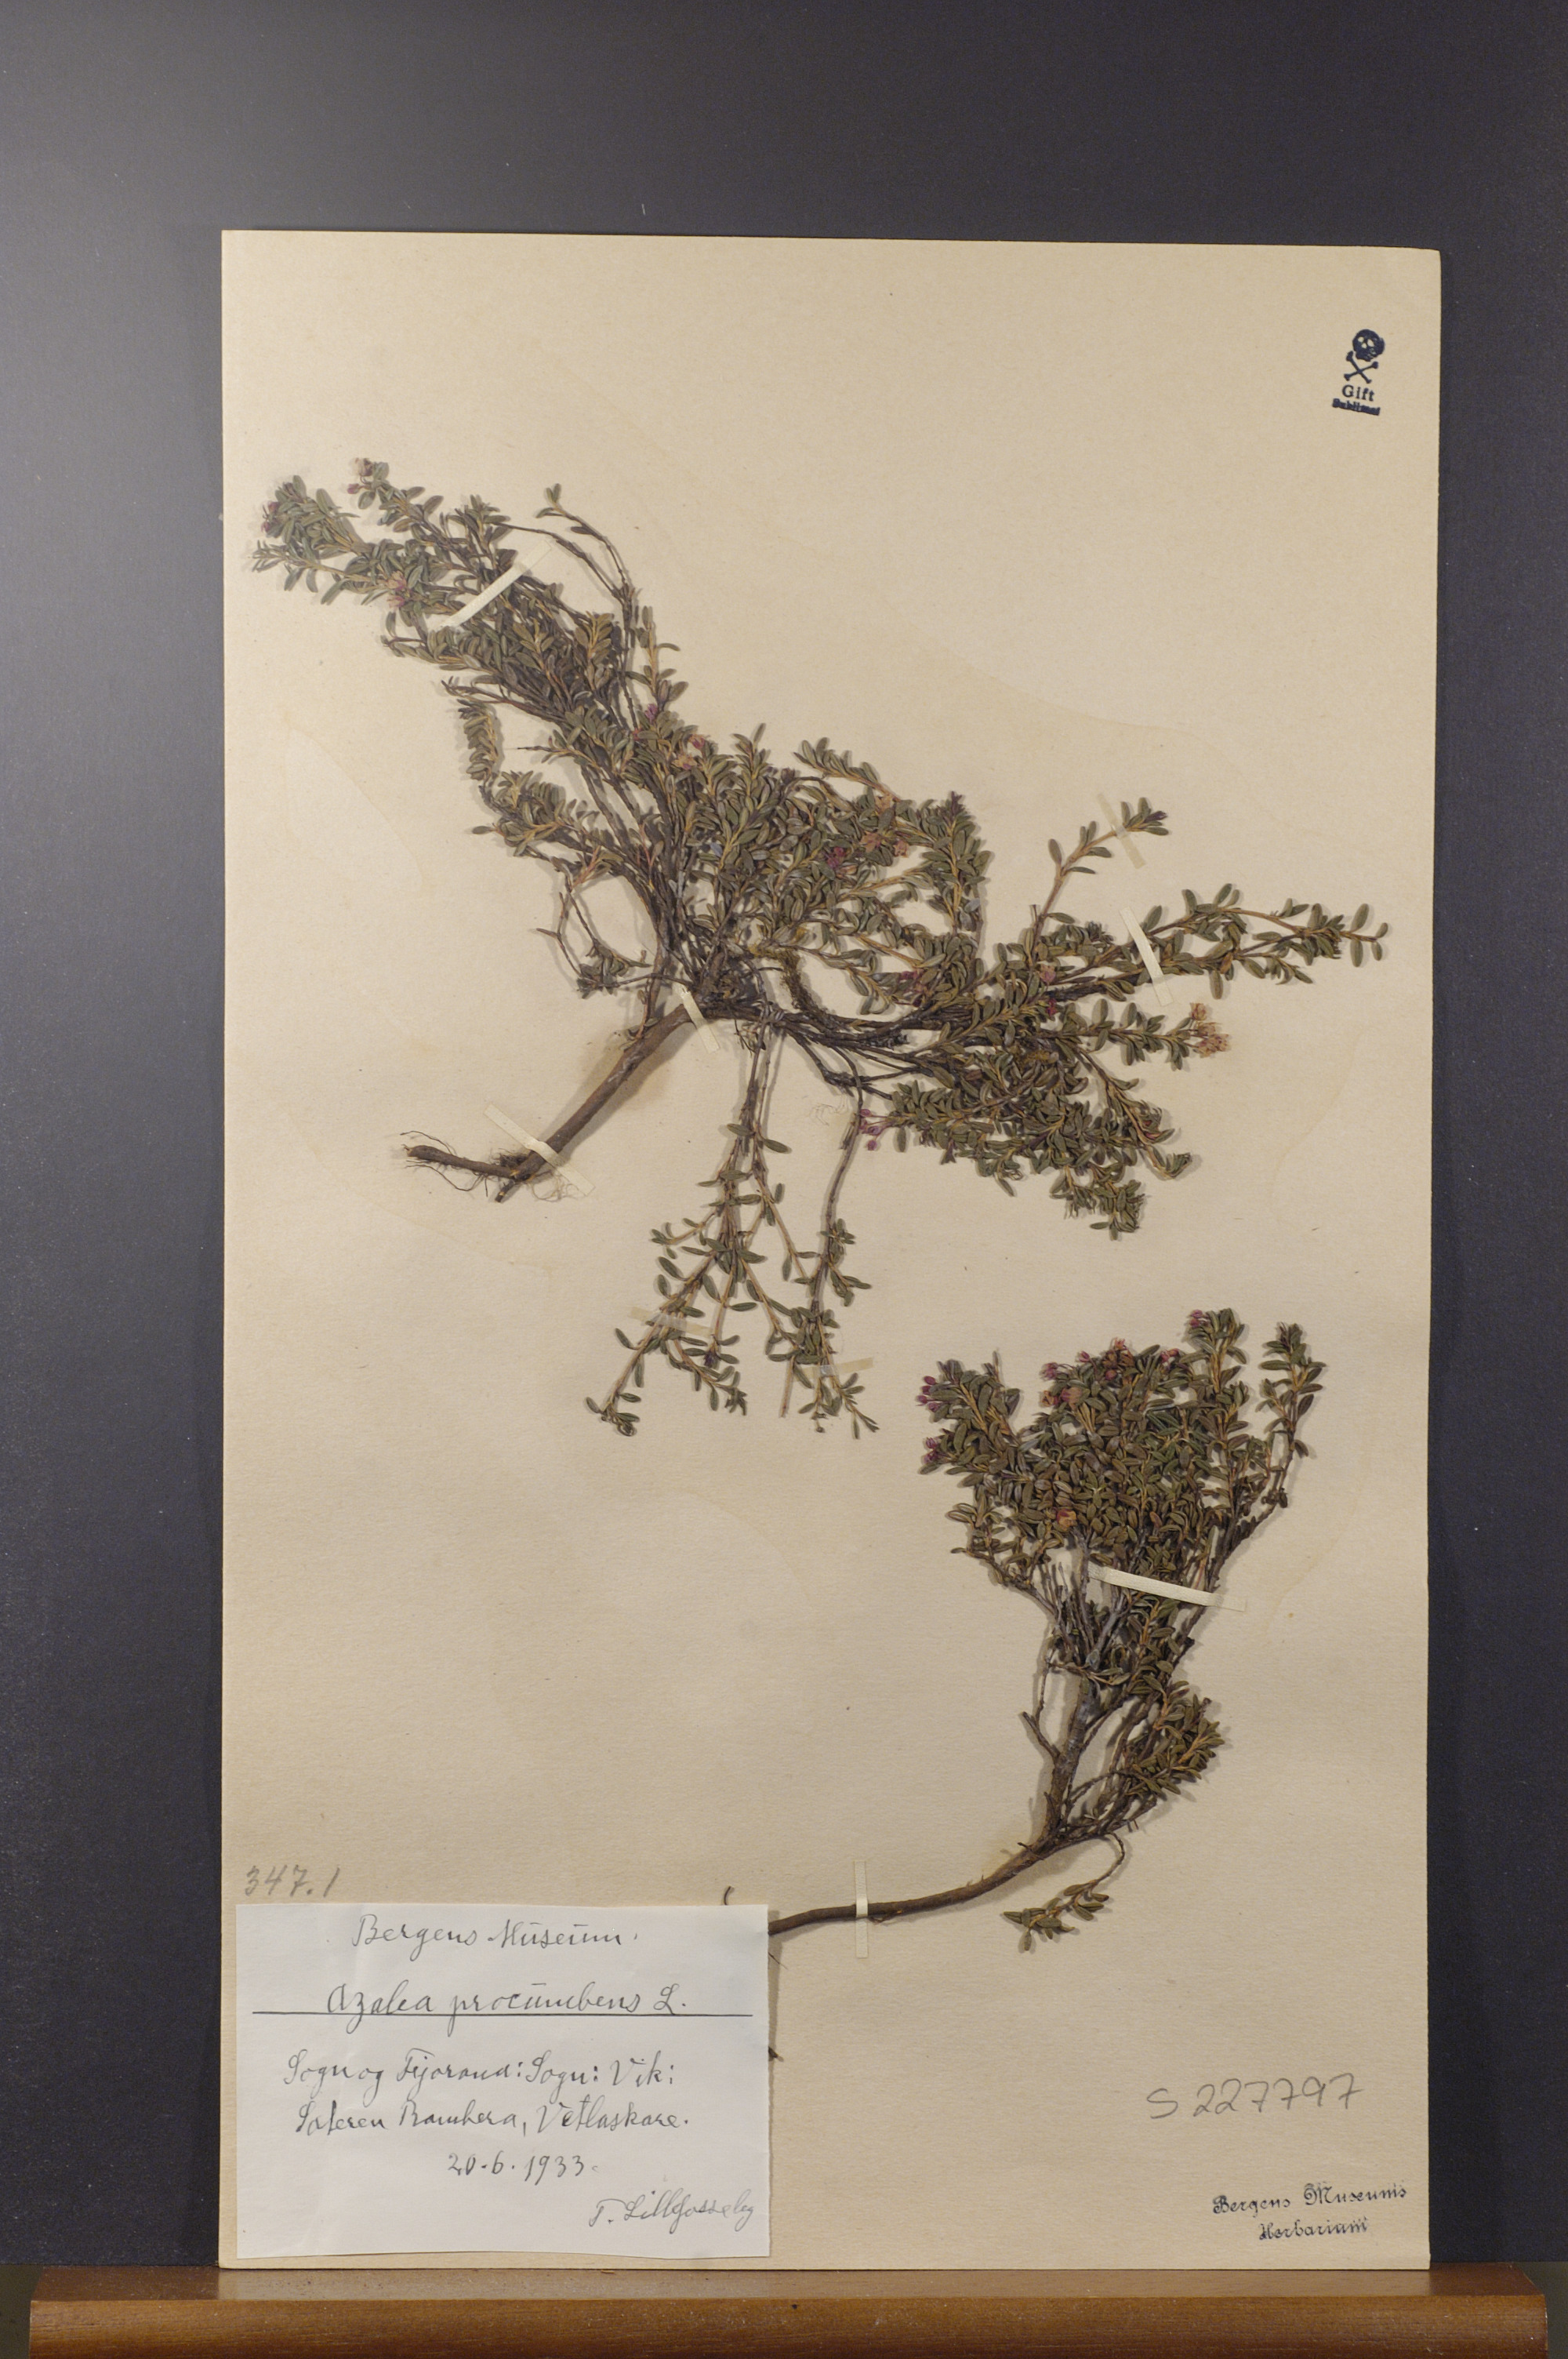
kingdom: Plantae
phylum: Tracheophyta
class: Magnoliopsida
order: Ericales
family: Ericaceae
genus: Kalmia
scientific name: Kalmia procumbens
